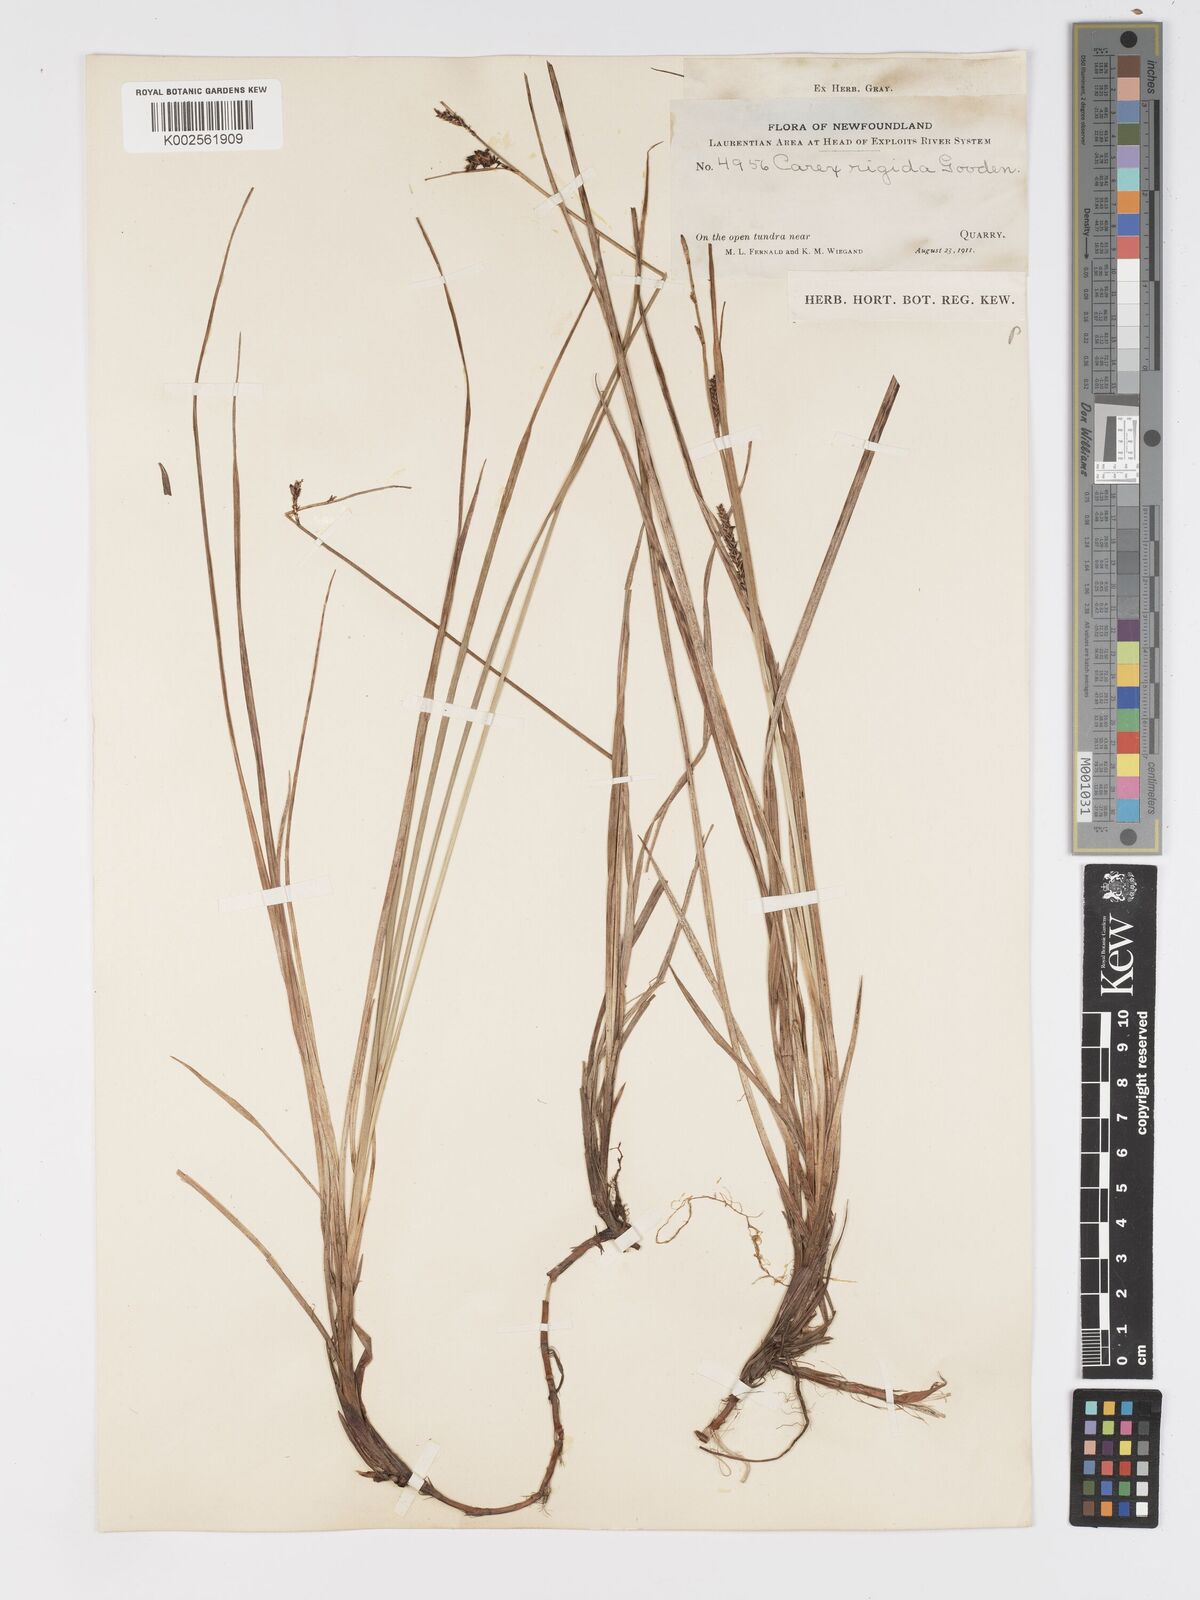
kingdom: Plantae
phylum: Tracheophyta
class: Liliopsida
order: Poales
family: Cyperaceae
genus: Carex
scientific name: Carex bigelowii
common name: Stiff sedge
